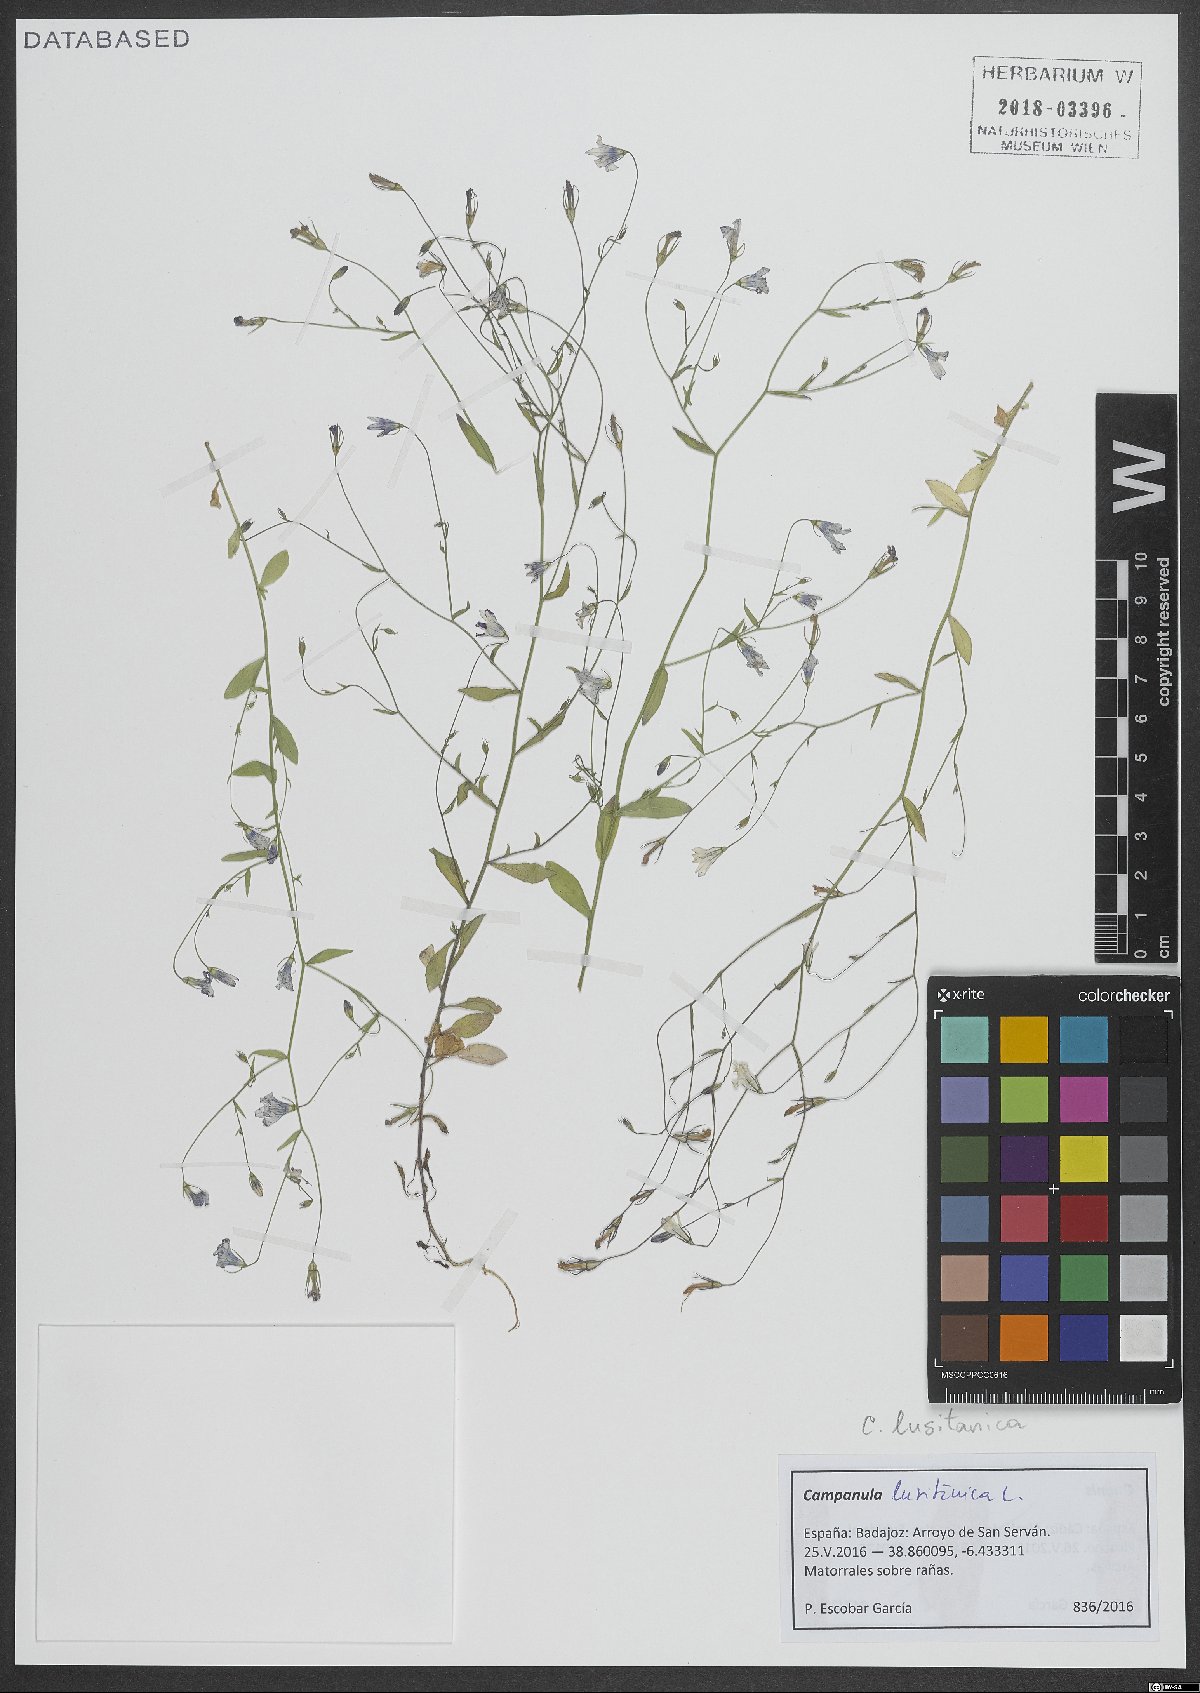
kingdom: Plantae
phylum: Tracheophyta
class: Magnoliopsida
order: Asterales
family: Campanulaceae
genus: Campanula
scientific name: Campanula lusitanica
